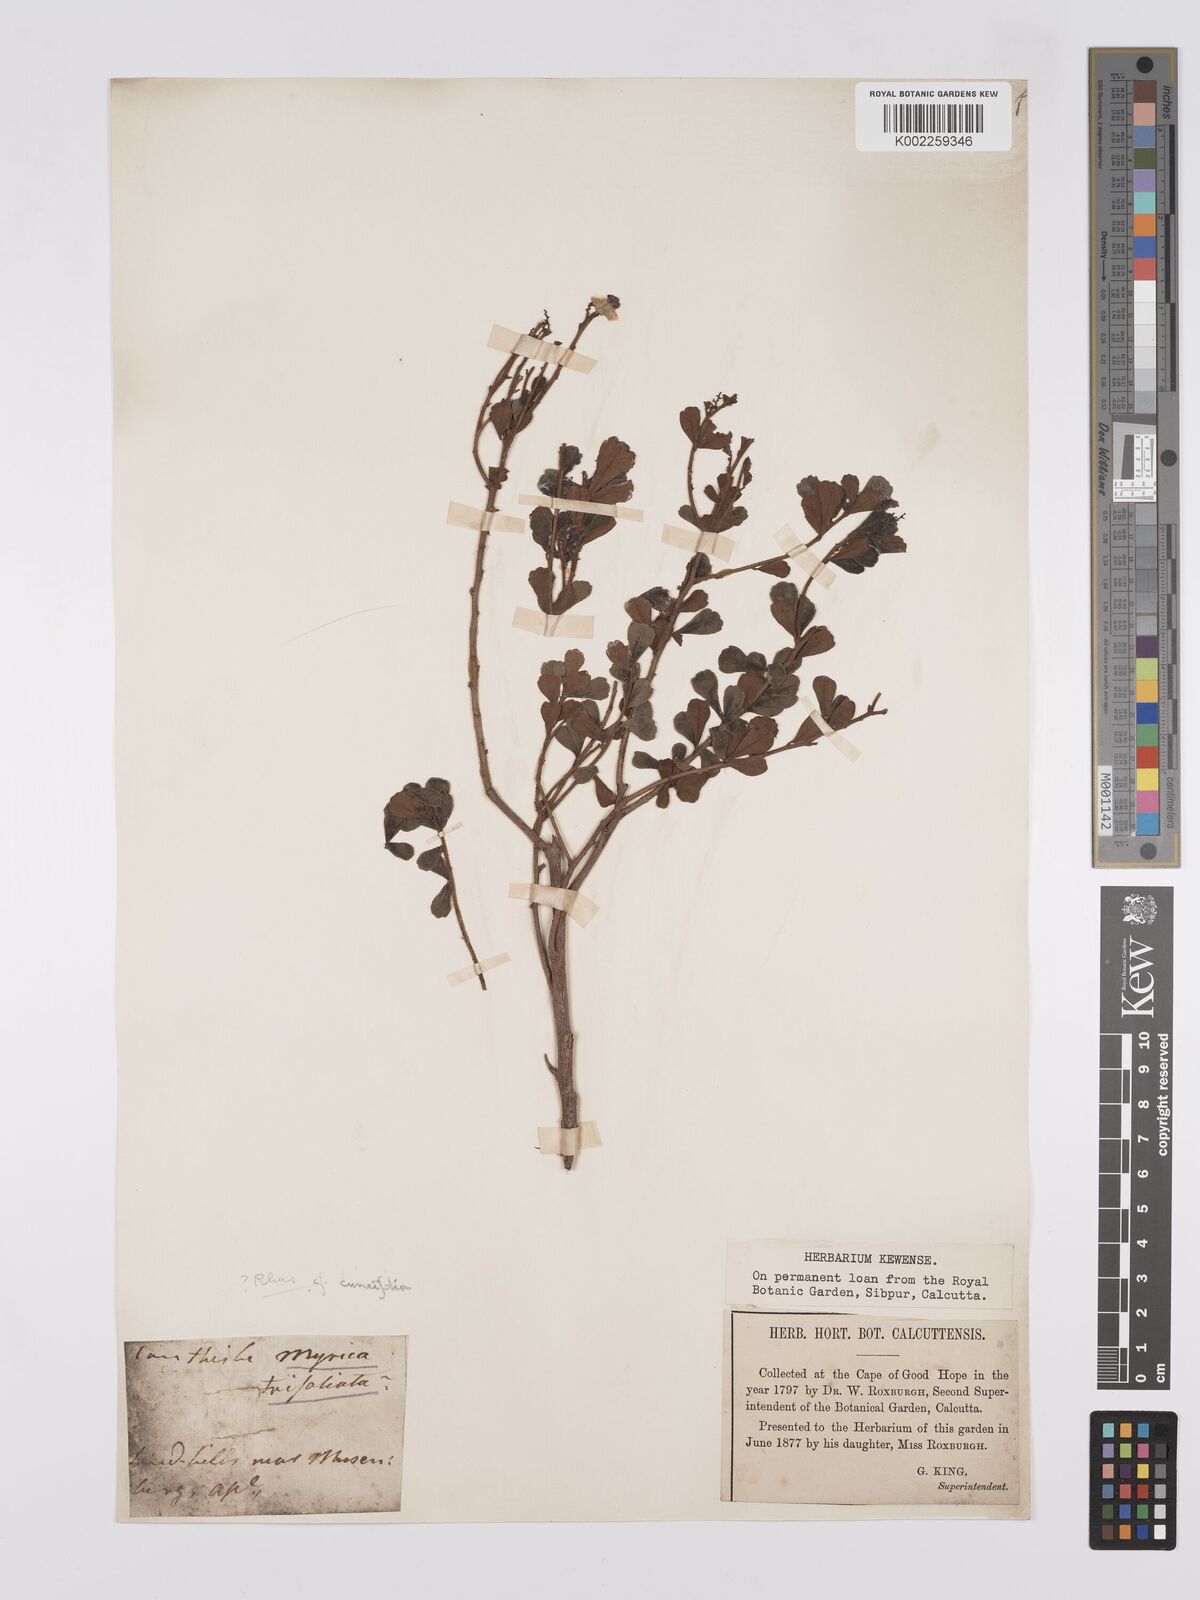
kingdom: Plantae
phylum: Tracheophyta
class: Magnoliopsida
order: Sapindales
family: Anacardiaceae
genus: Searsia
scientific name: Searsia cuneifolia
